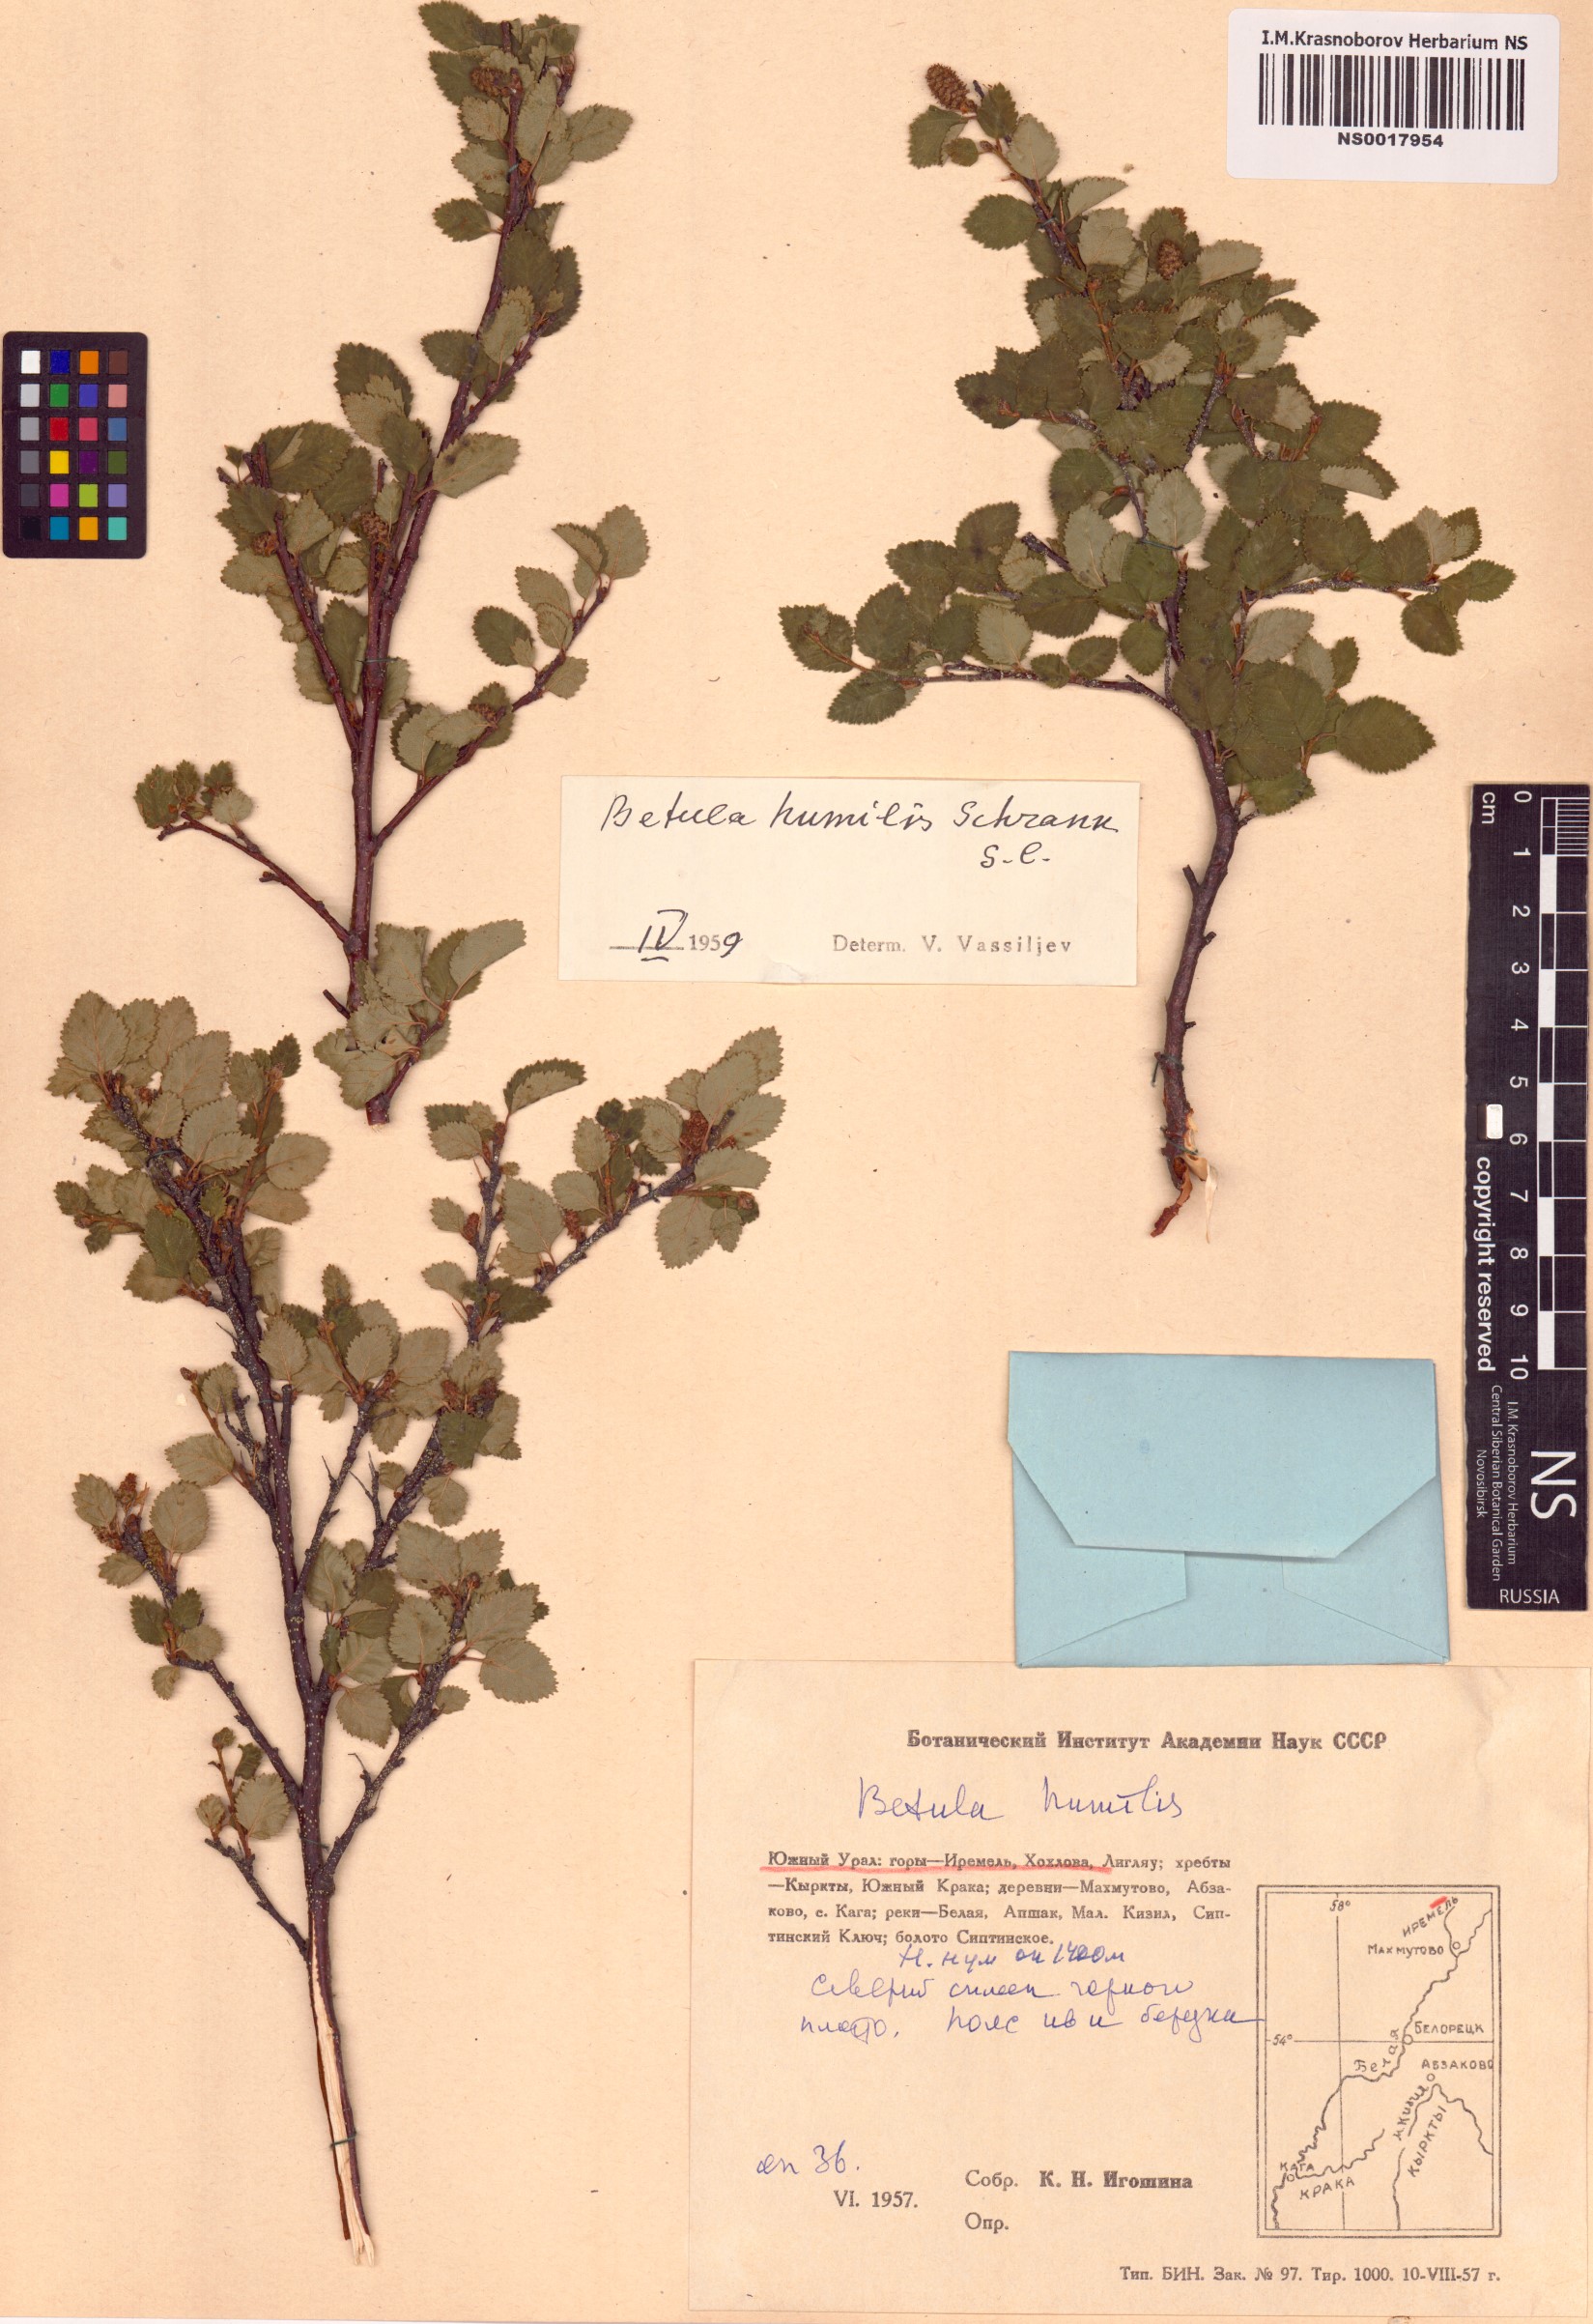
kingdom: Plantae
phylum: Tracheophyta
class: Magnoliopsida
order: Fagales
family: Betulaceae
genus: Betula
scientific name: Betula humilis
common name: Shrubby birch
